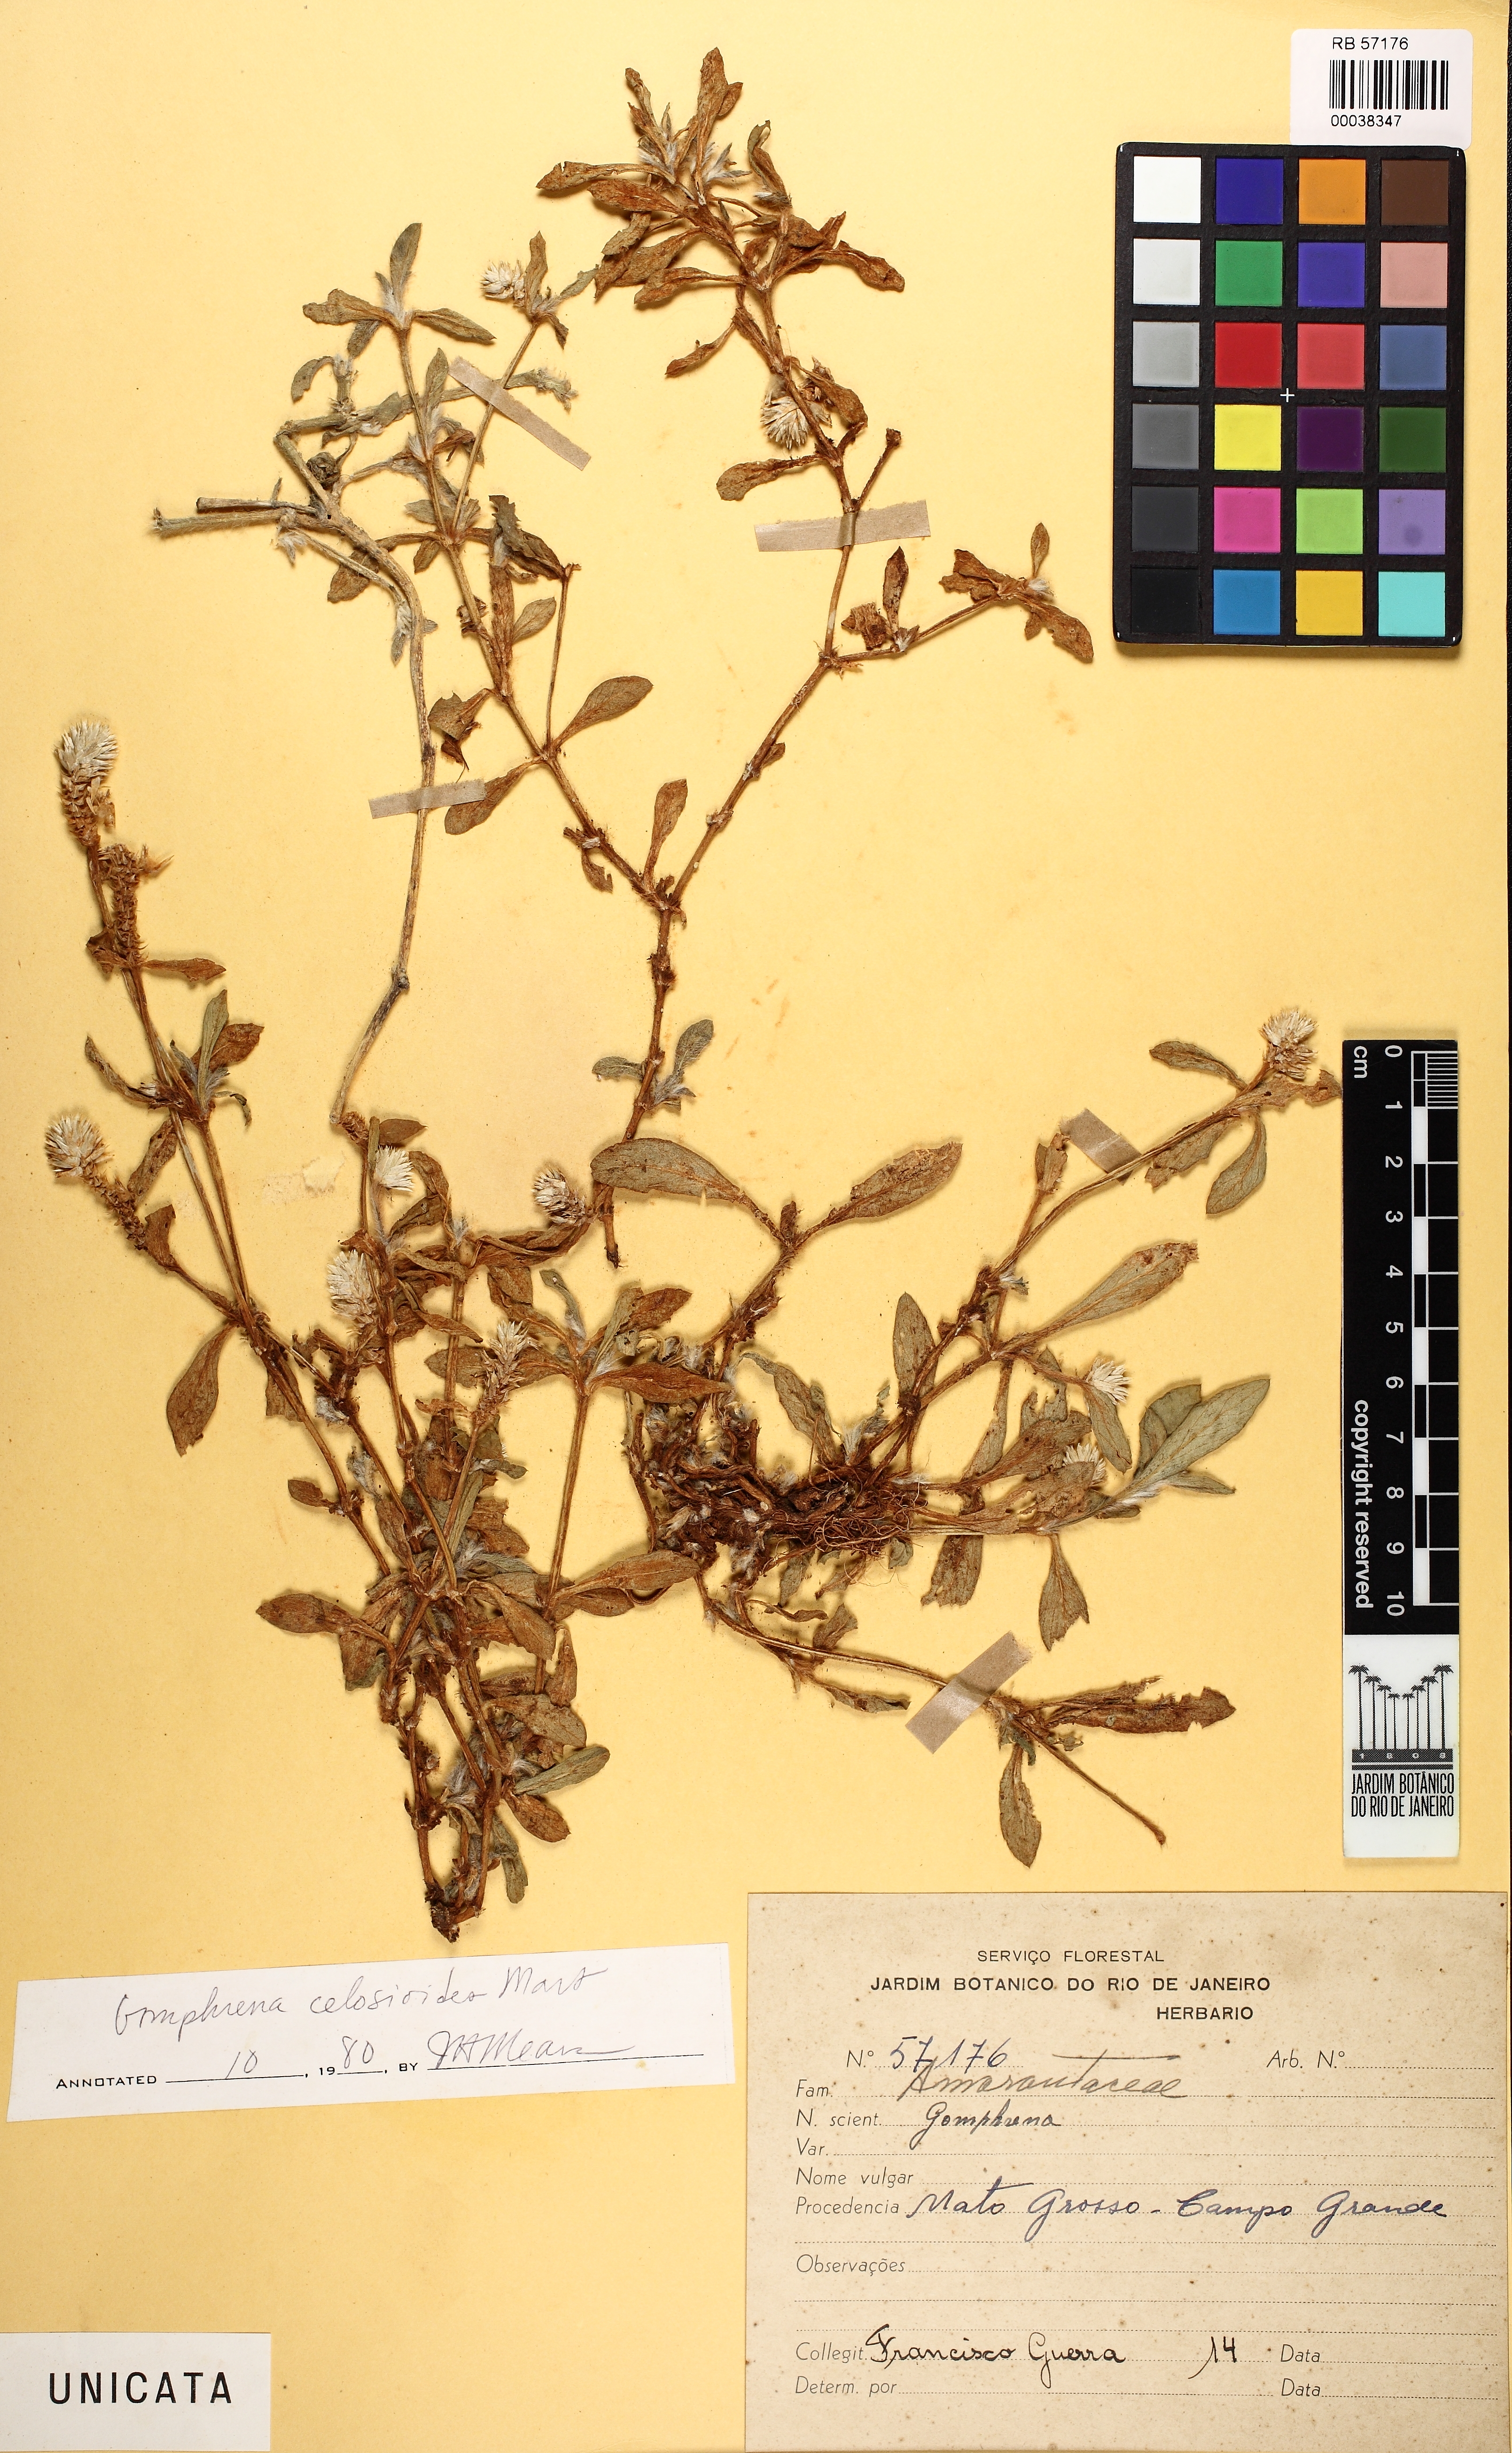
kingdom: Plantae
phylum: Tracheophyta
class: Magnoliopsida
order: Caryophyllales
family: Amaranthaceae
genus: Gomphrena
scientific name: Gomphrena celosioides
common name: Gomphrena-weed
